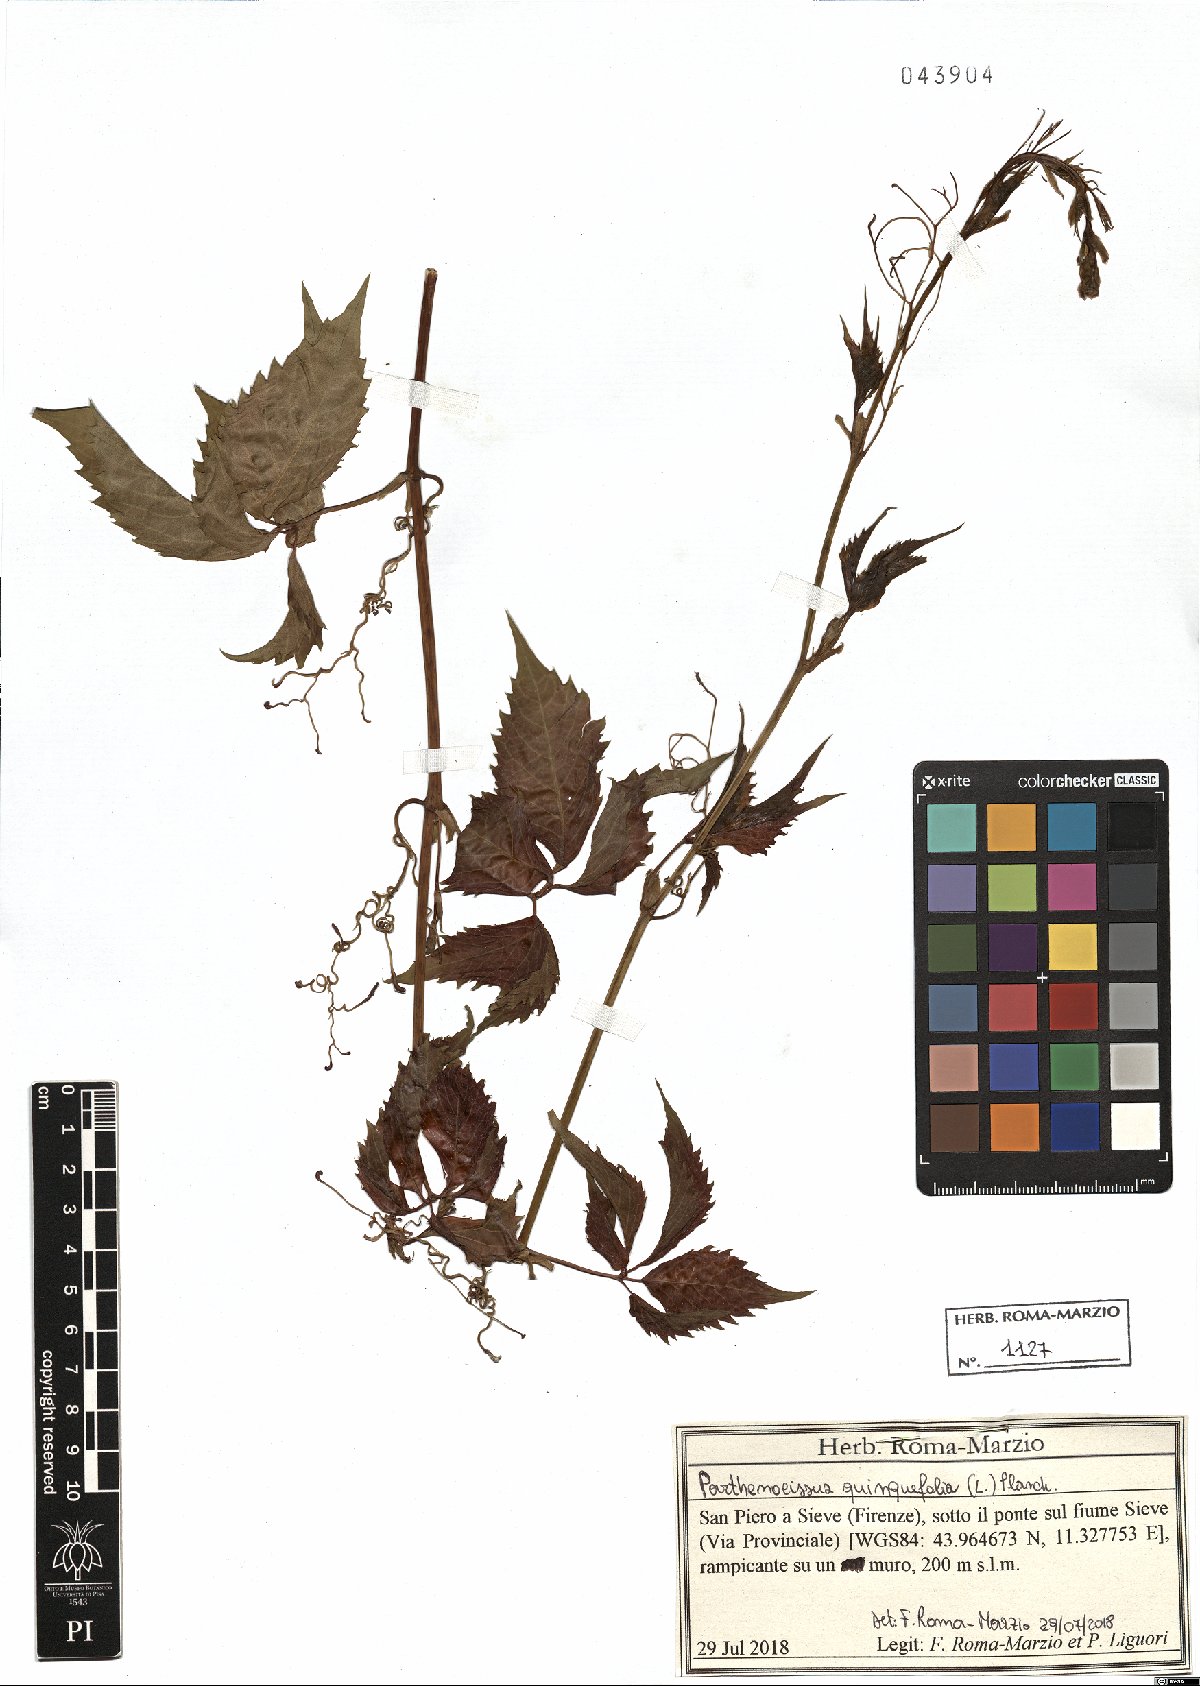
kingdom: Plantae
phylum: Tracheophyta
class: Magnoliopsida
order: Vitales
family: Vitaceae
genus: Parthenocissus
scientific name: Parthenocissus quinquefolia
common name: Virginia-creeper
